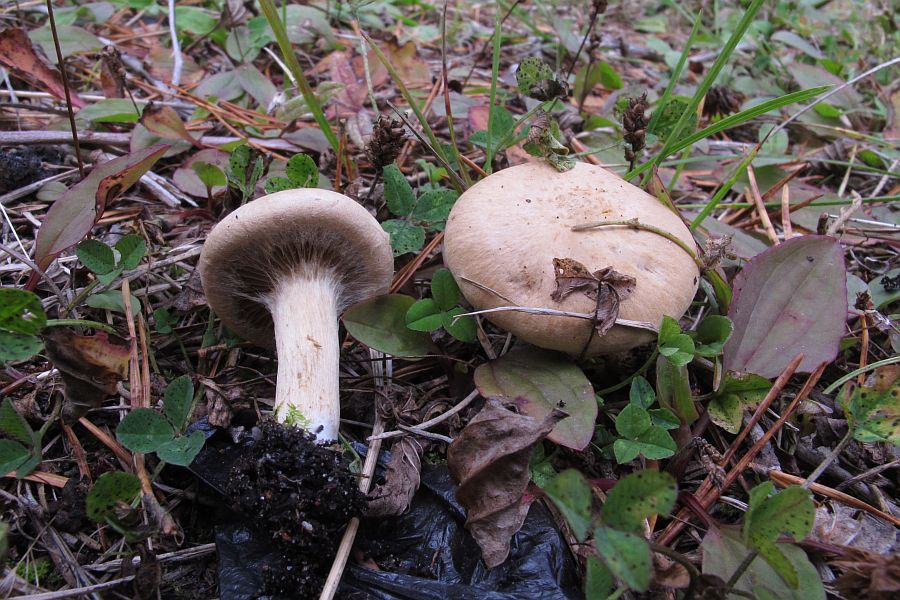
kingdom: Fungi
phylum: Basidiomycota
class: Agaricomycetes
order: Agaricales
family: Inocybaceae
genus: Mallocybe
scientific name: Mallocybe agardhii
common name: Agardhs trævlhat
